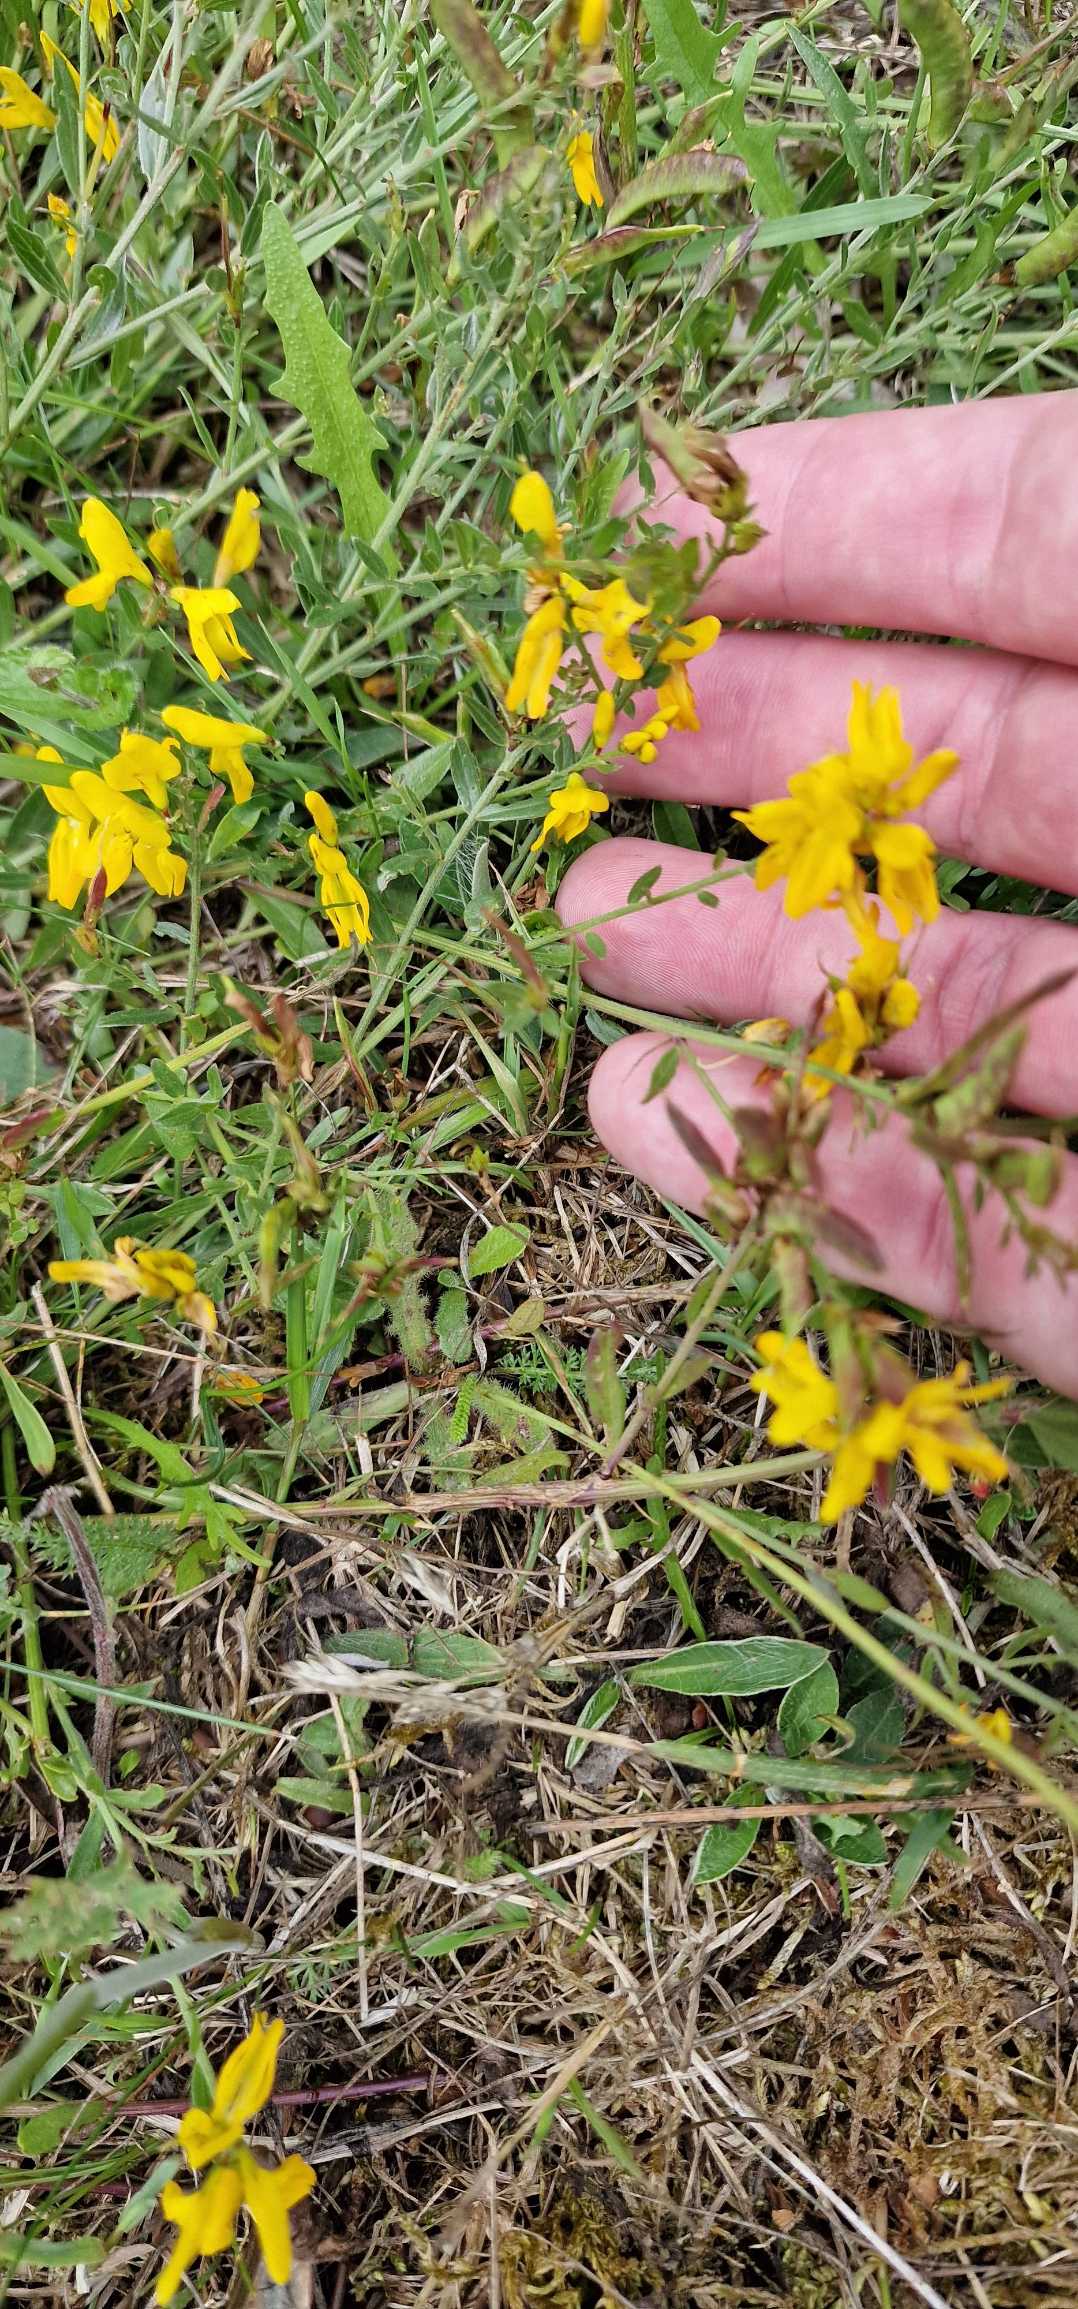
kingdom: Plantae
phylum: Tracheophyta
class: Magnoliopsida
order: Fabales
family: Fabaceae
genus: Genista
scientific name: Genista tinctoria
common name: Farve-visse
